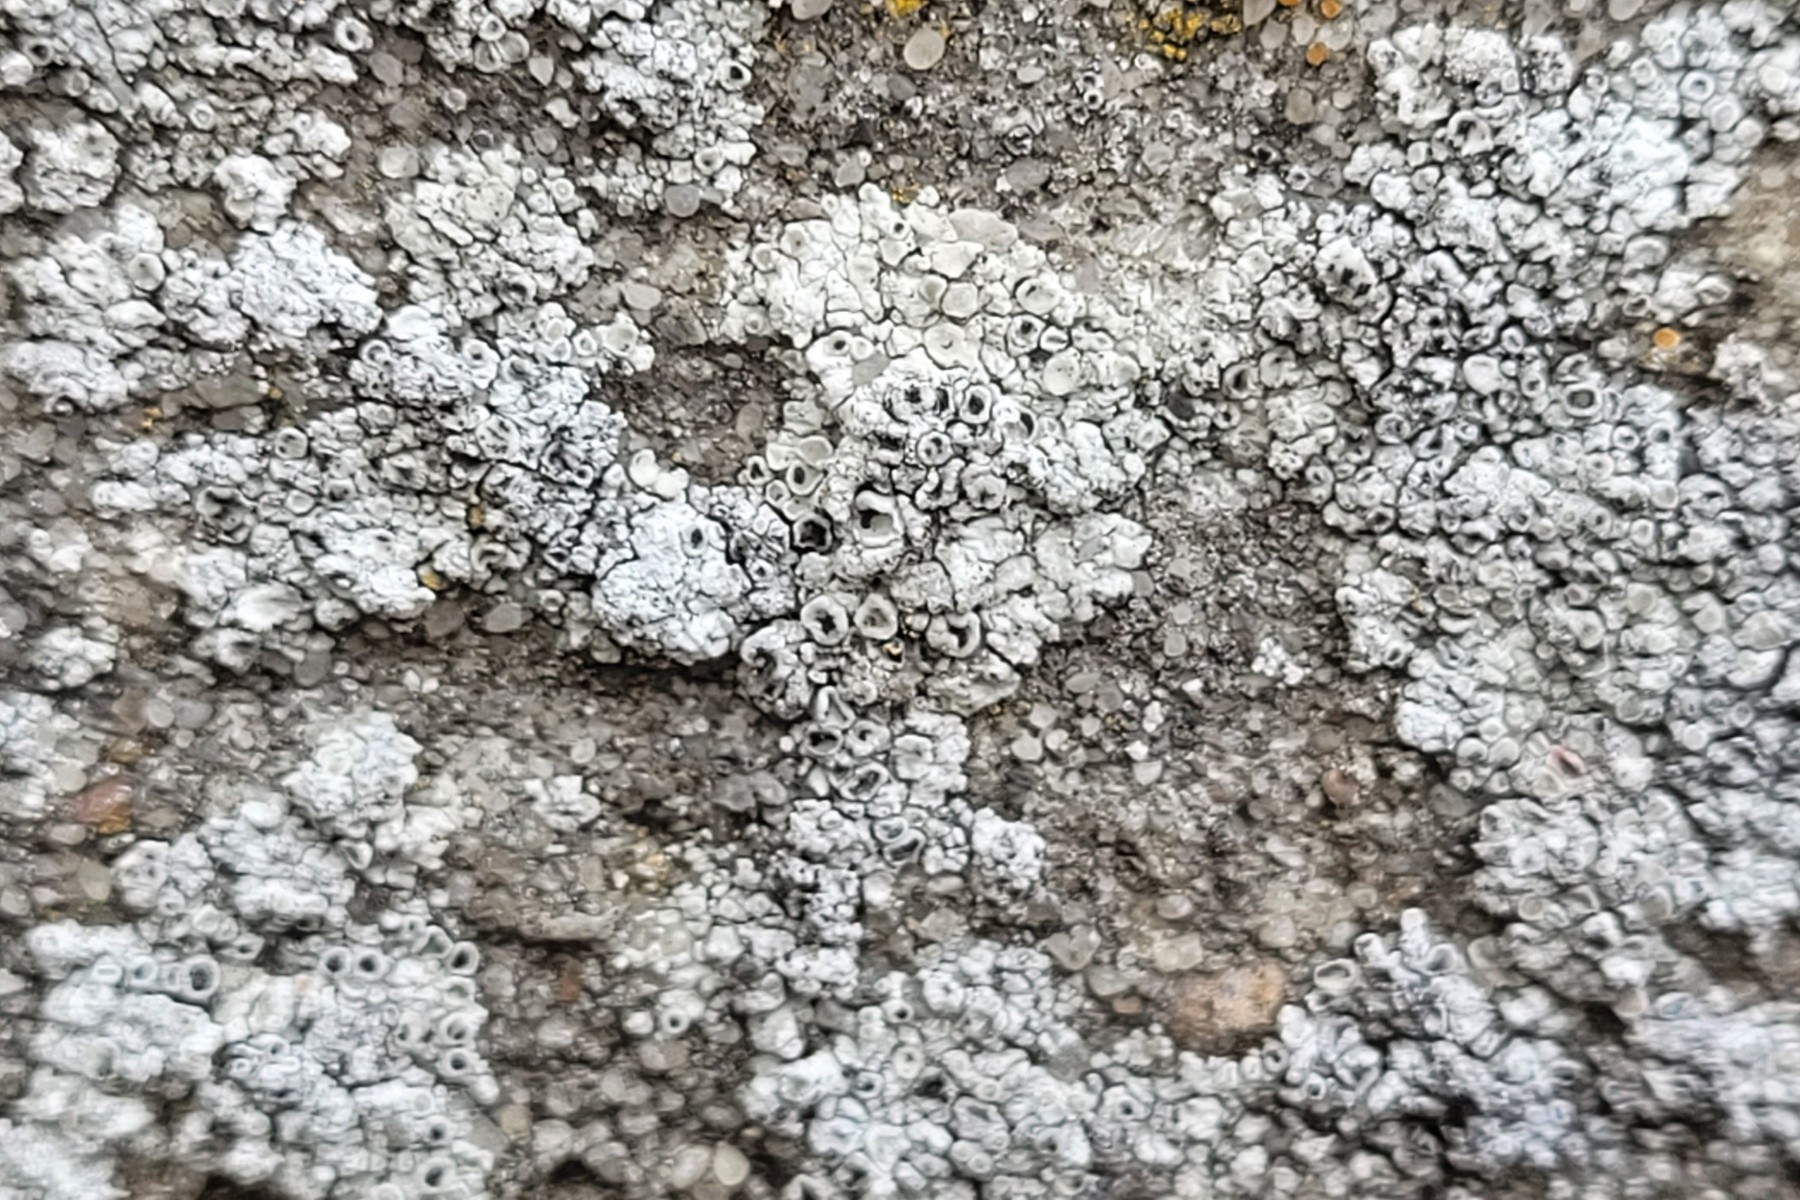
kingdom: Fungi
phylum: Ascomycota
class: Lecanoromycetes
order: Lecanorales
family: Lecanoraceae
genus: Polyozosia
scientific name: Polyozosia albescens
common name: cement-kantskivelav
